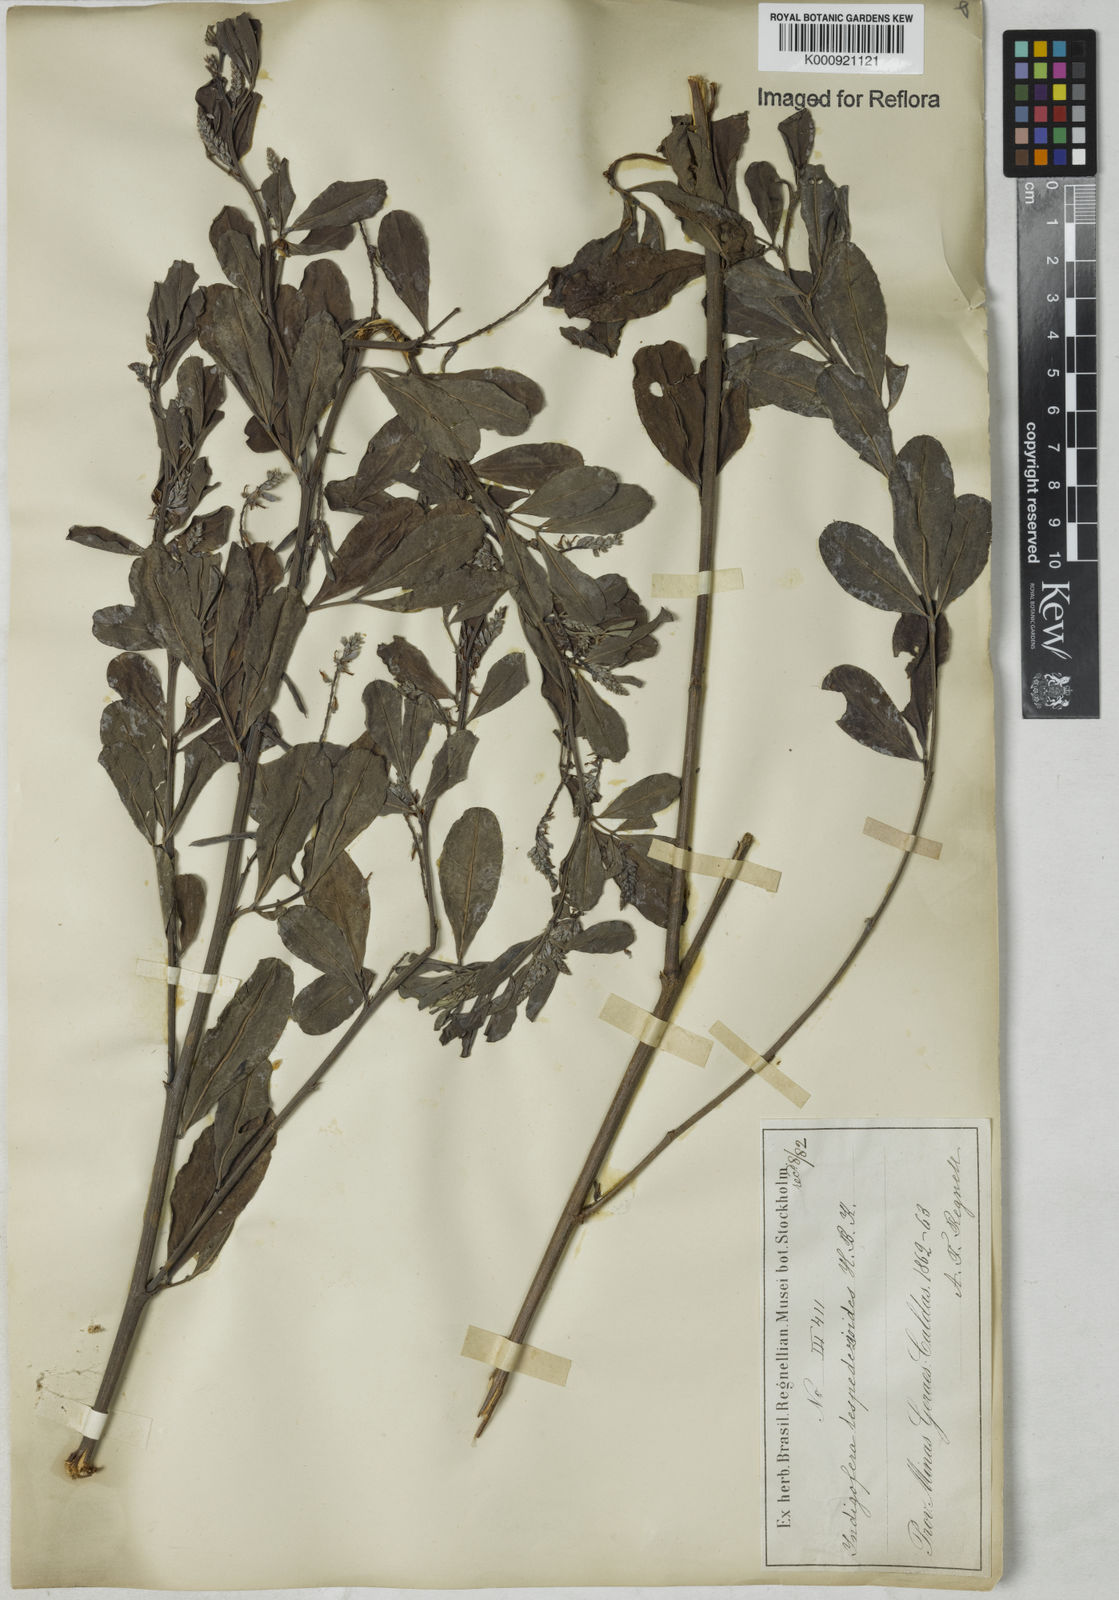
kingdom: Plantae
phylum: Tracheophyta
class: Magnoliopsida
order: Fabales
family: Fabaceae
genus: Indigofera
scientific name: Indigofera lespedezioides
